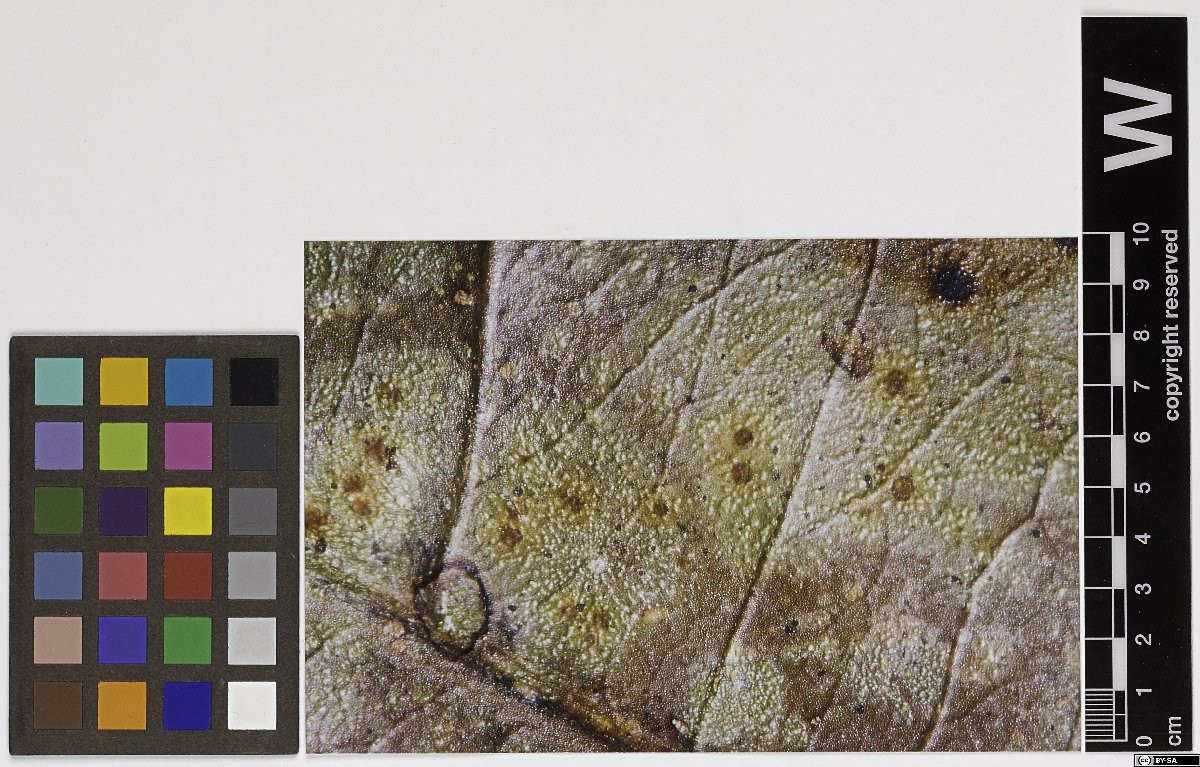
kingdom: Fungi
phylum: Ascomycota
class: Lecanoromycetes
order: Ostropales
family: Gomphillaceae
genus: Echinoplaca
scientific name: Echinoplaca tetrapla
